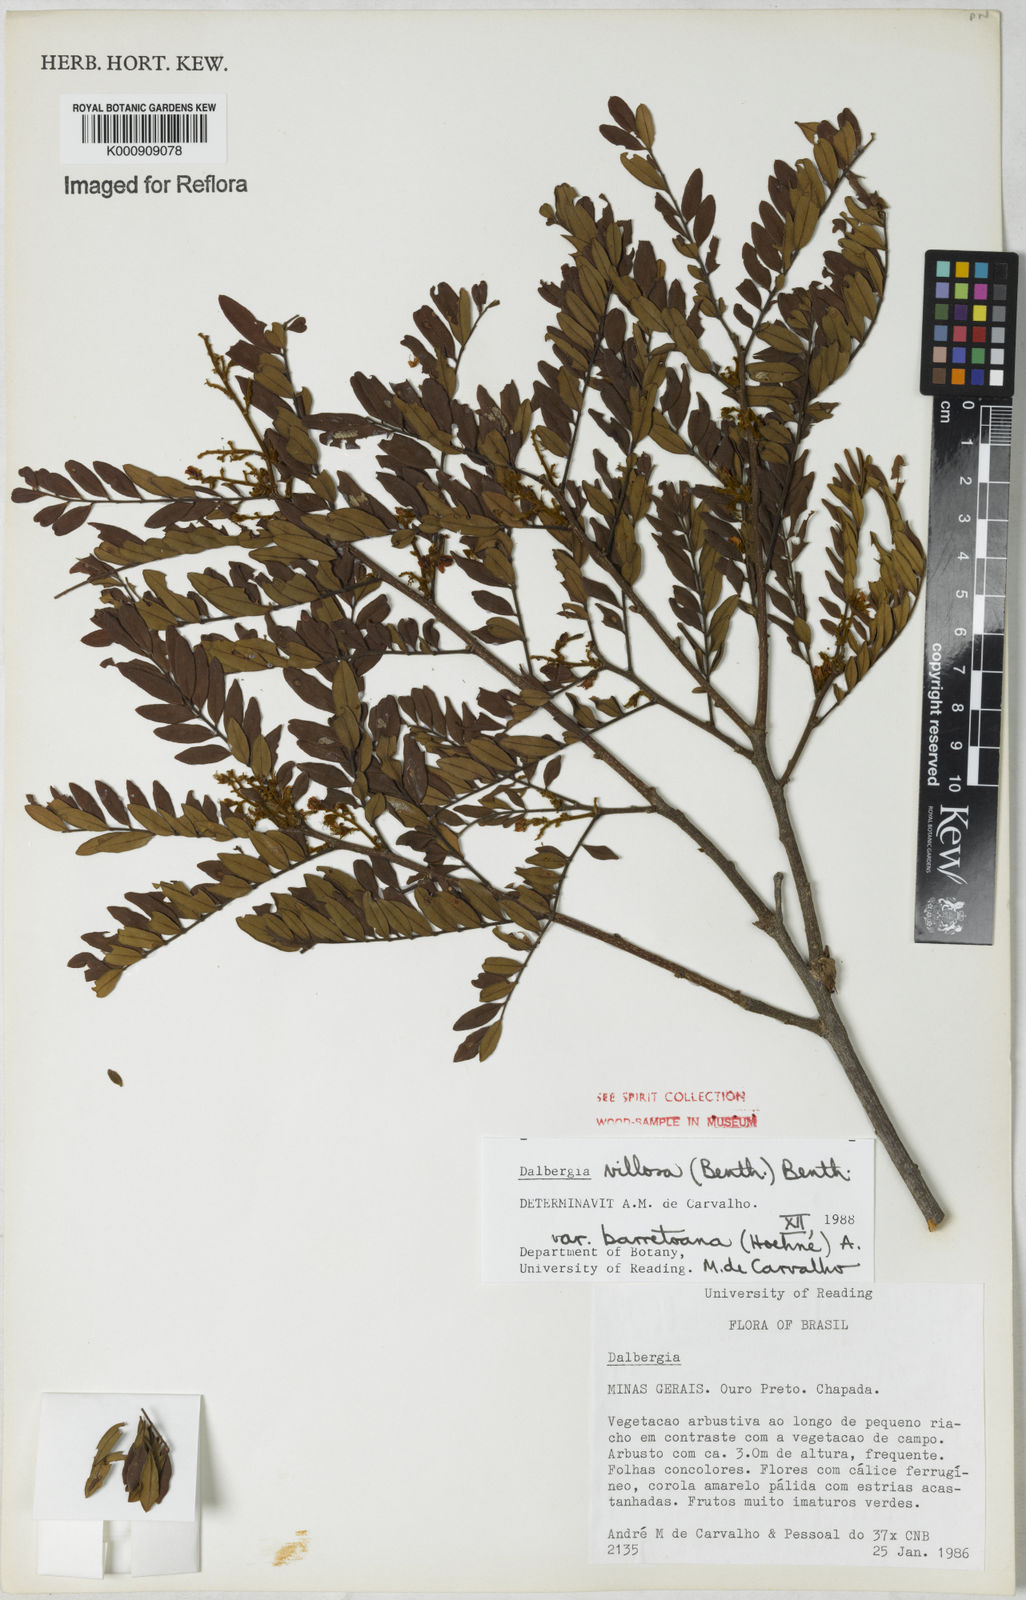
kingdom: Plantae
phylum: Tracheophyta
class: Magnoliopsida
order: Fabales
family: Fabaceae
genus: Dalbergia
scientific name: Dalbergia villosa
